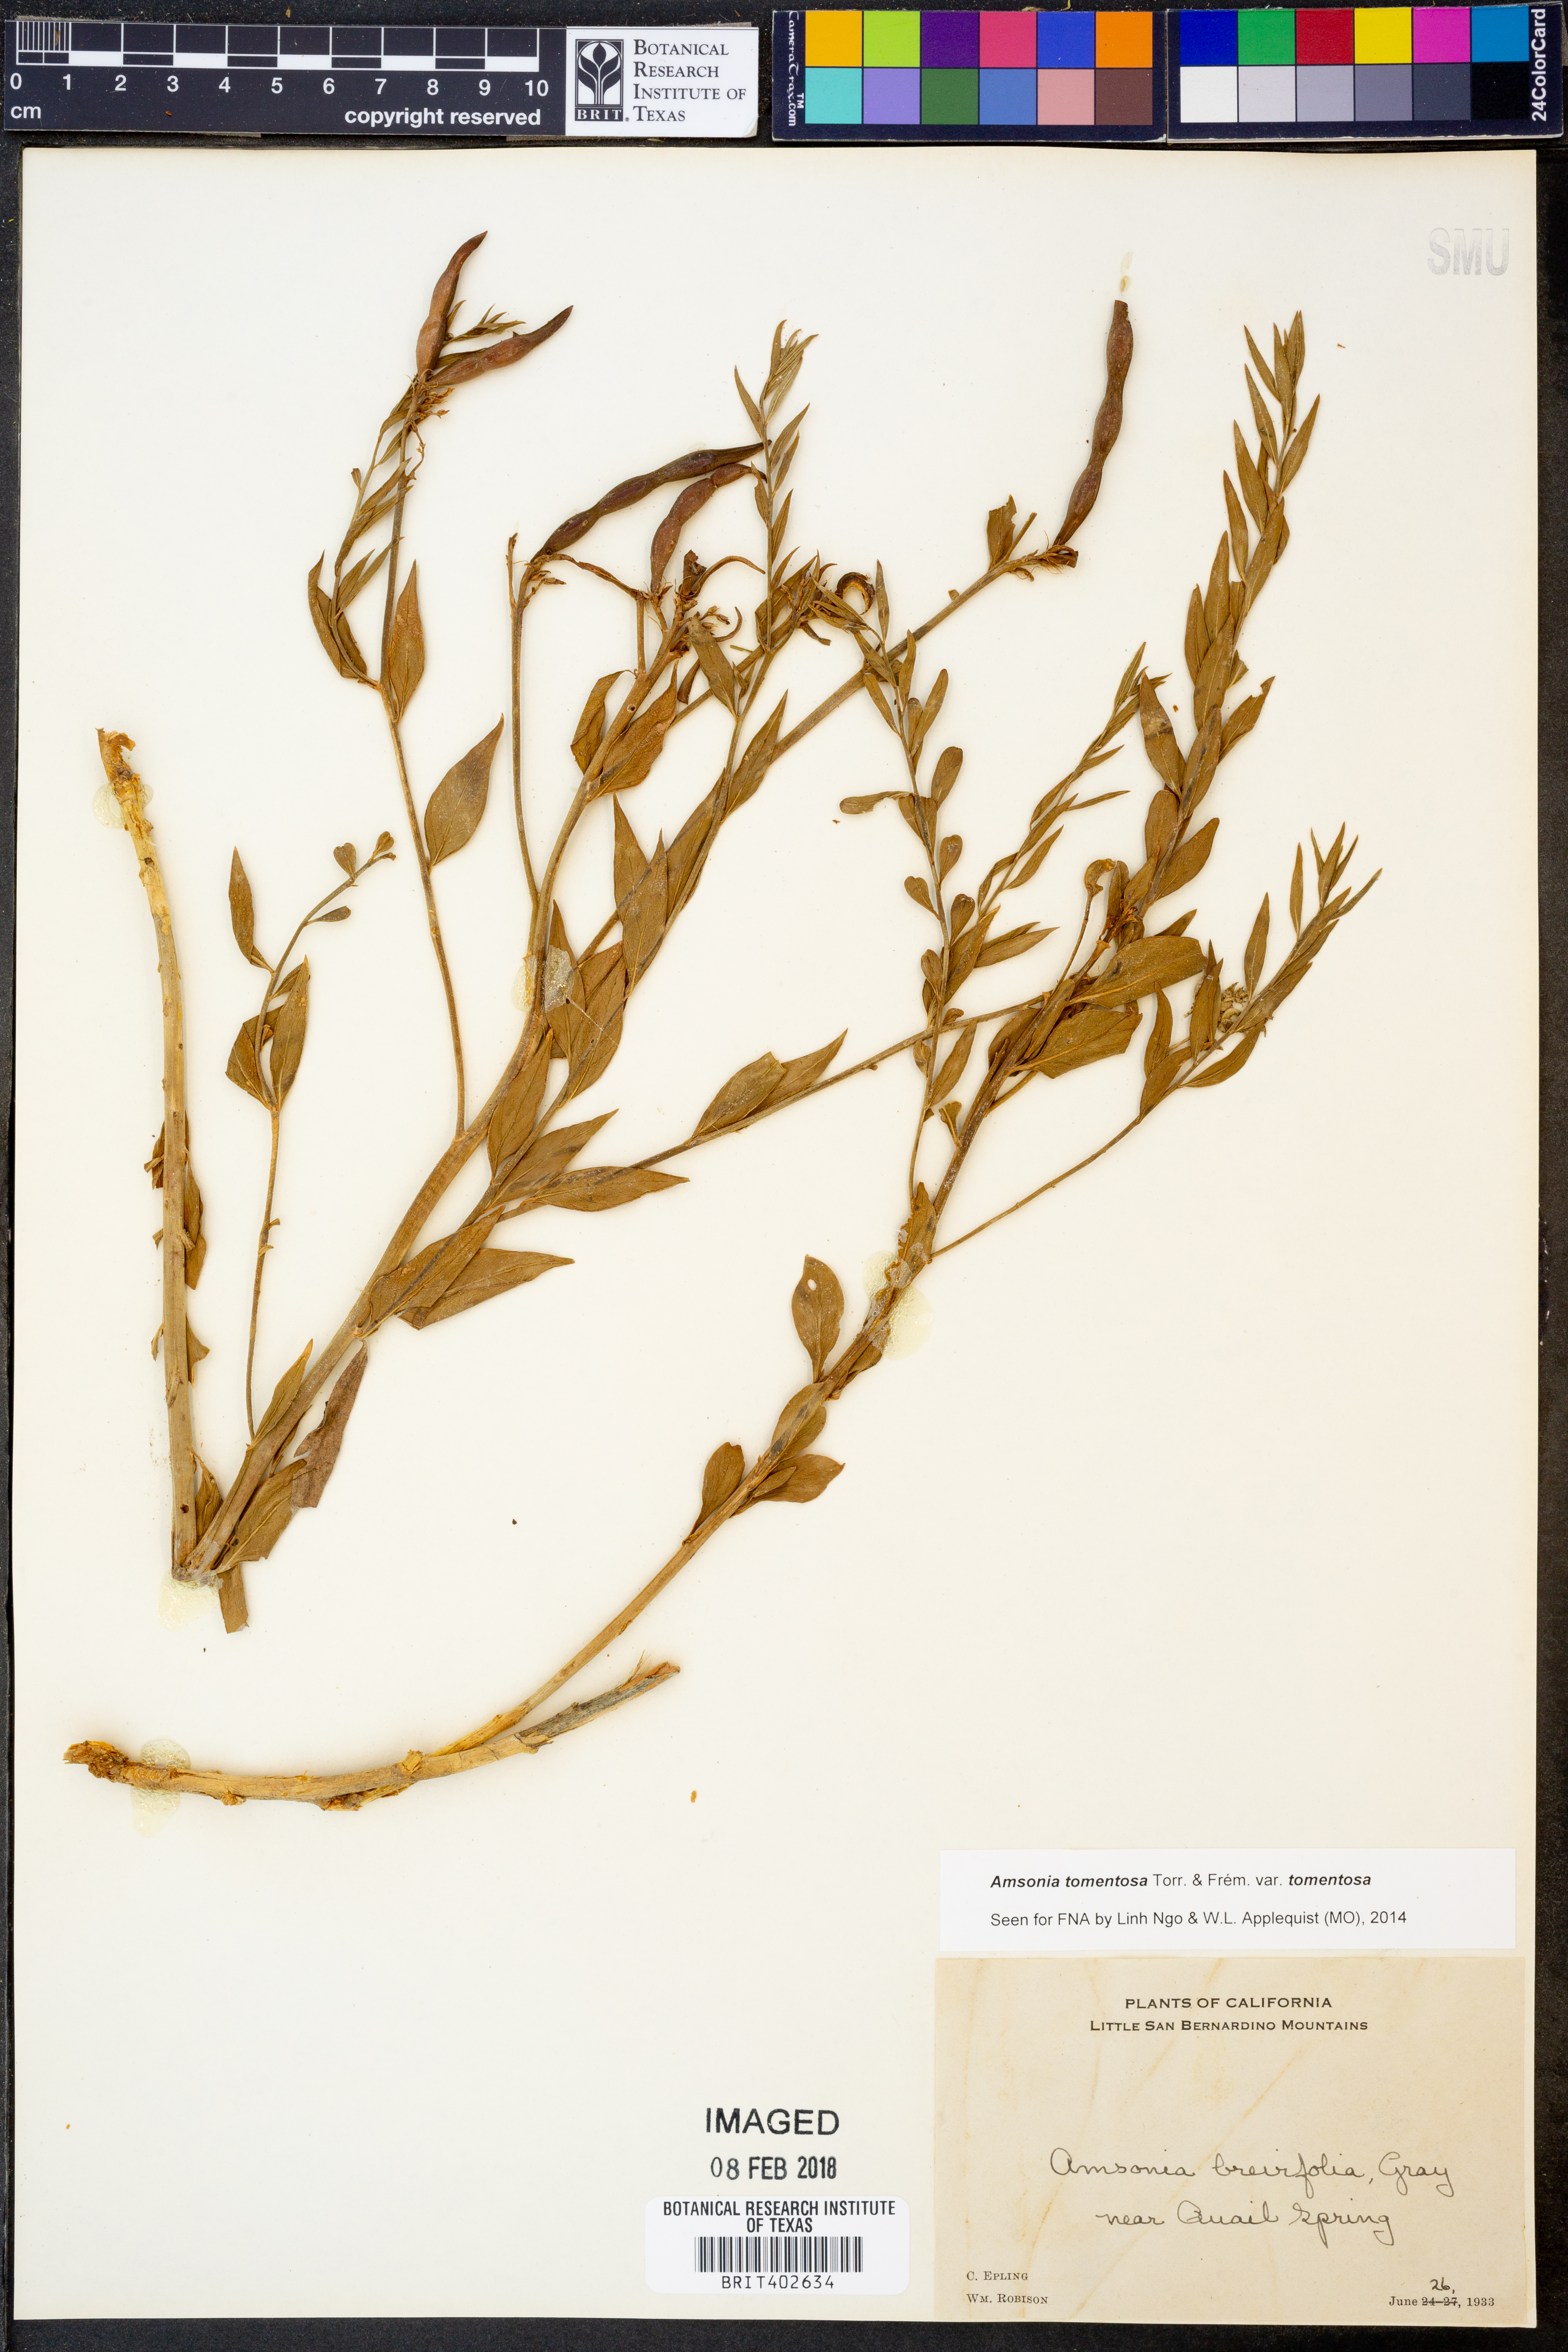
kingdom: Plantae
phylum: Tracheophyta
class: Magnoliopsida
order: Gentianales
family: Apocynaceae
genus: Amsonia
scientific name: Amsonia tomentosa
